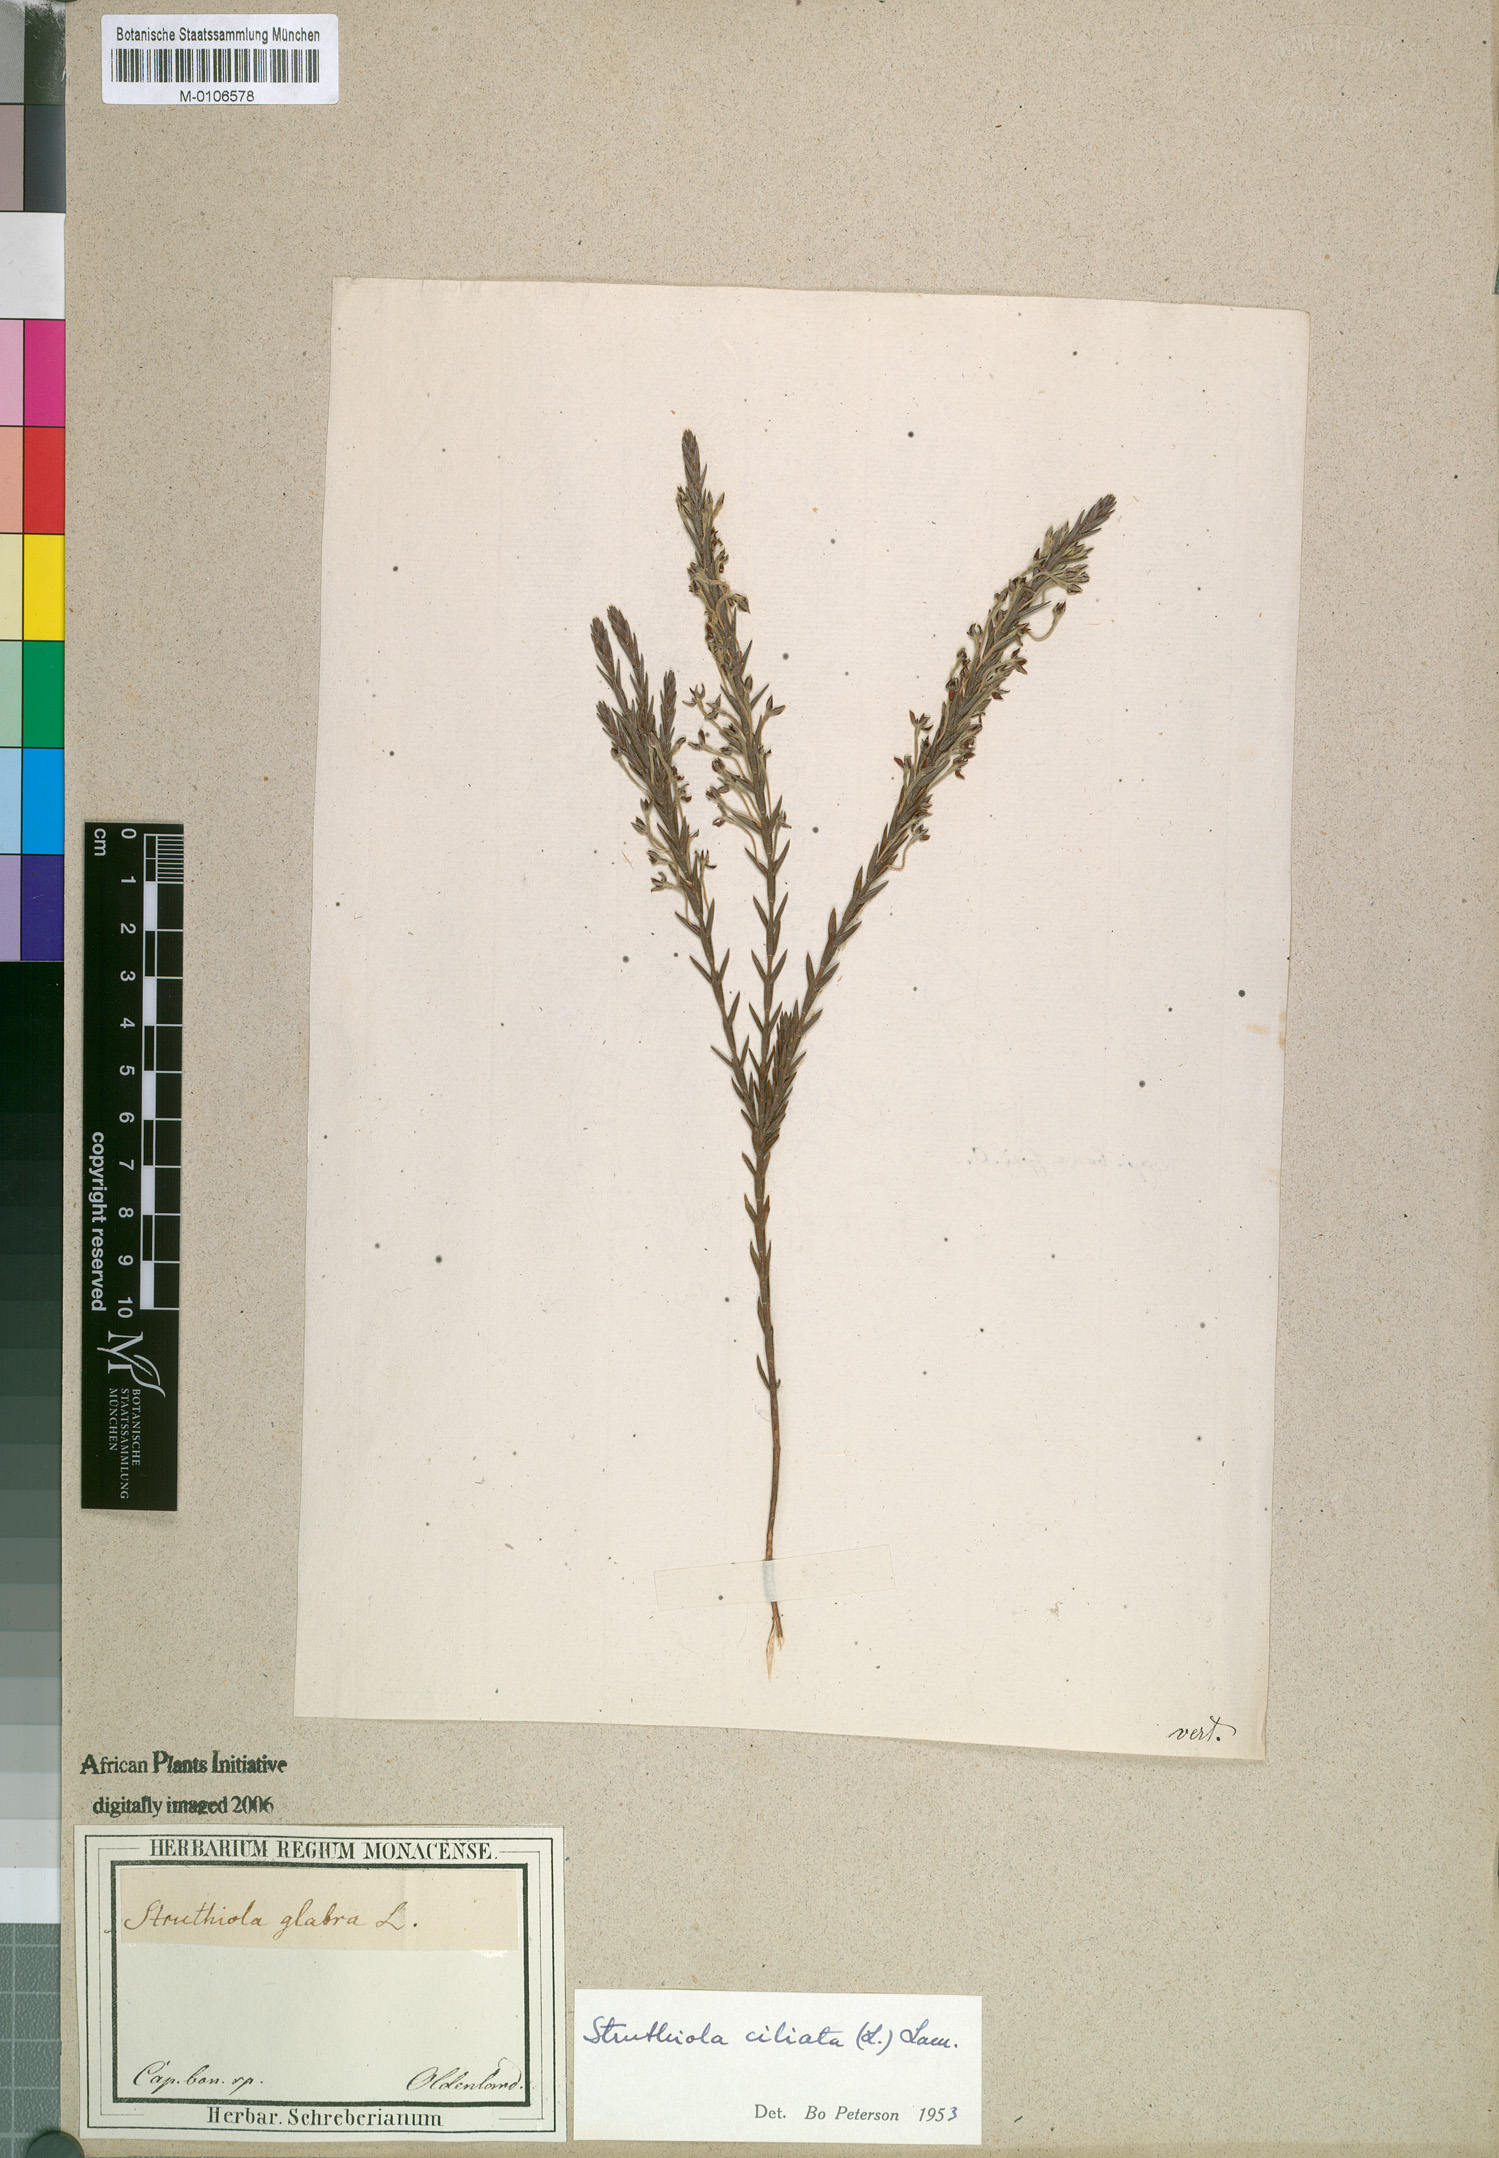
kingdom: Plantae
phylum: Tracheophyta
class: Magnoliopsida
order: Malvales
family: Thymelaeaceae
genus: Struthiola
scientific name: Struthiola ciliata
